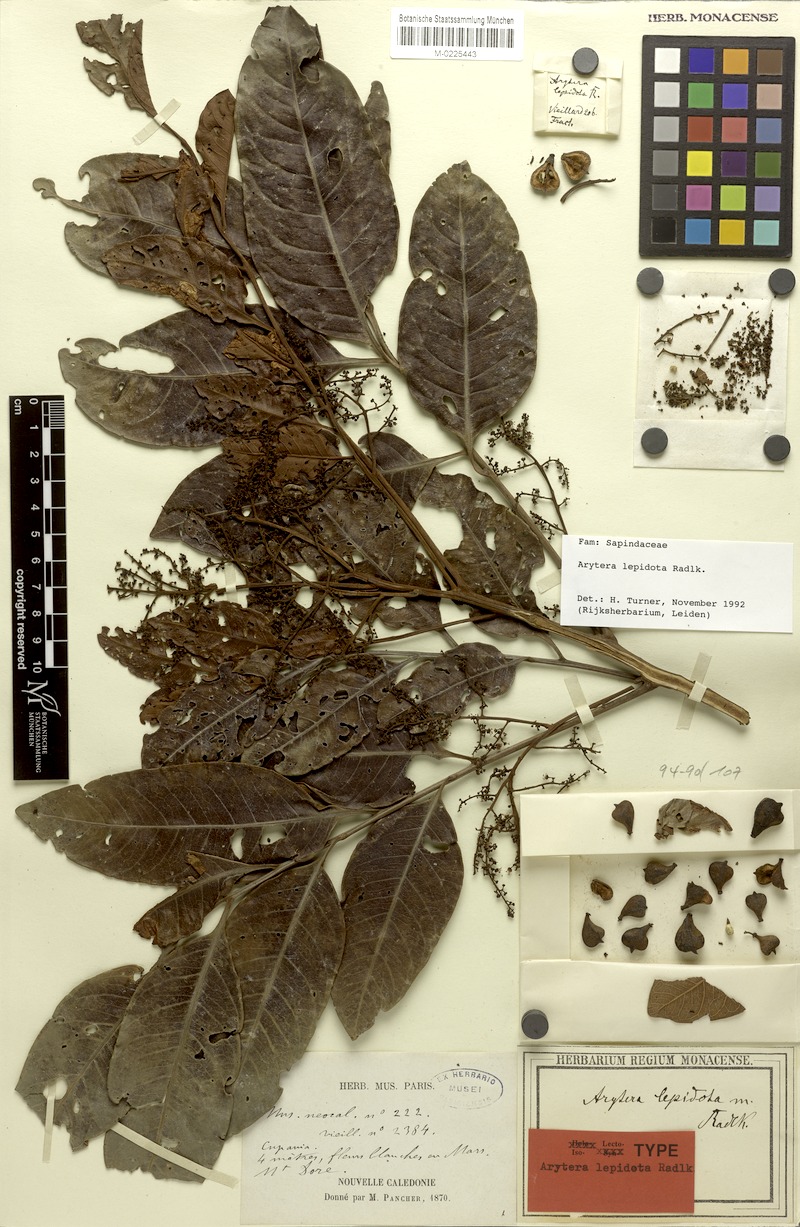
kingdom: Plantae
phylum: Tracheophyta
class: Magnoliopsida
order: Sapindales
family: Sapindaceae
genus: Lepidocupania
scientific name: Lepidocupania lepidota
